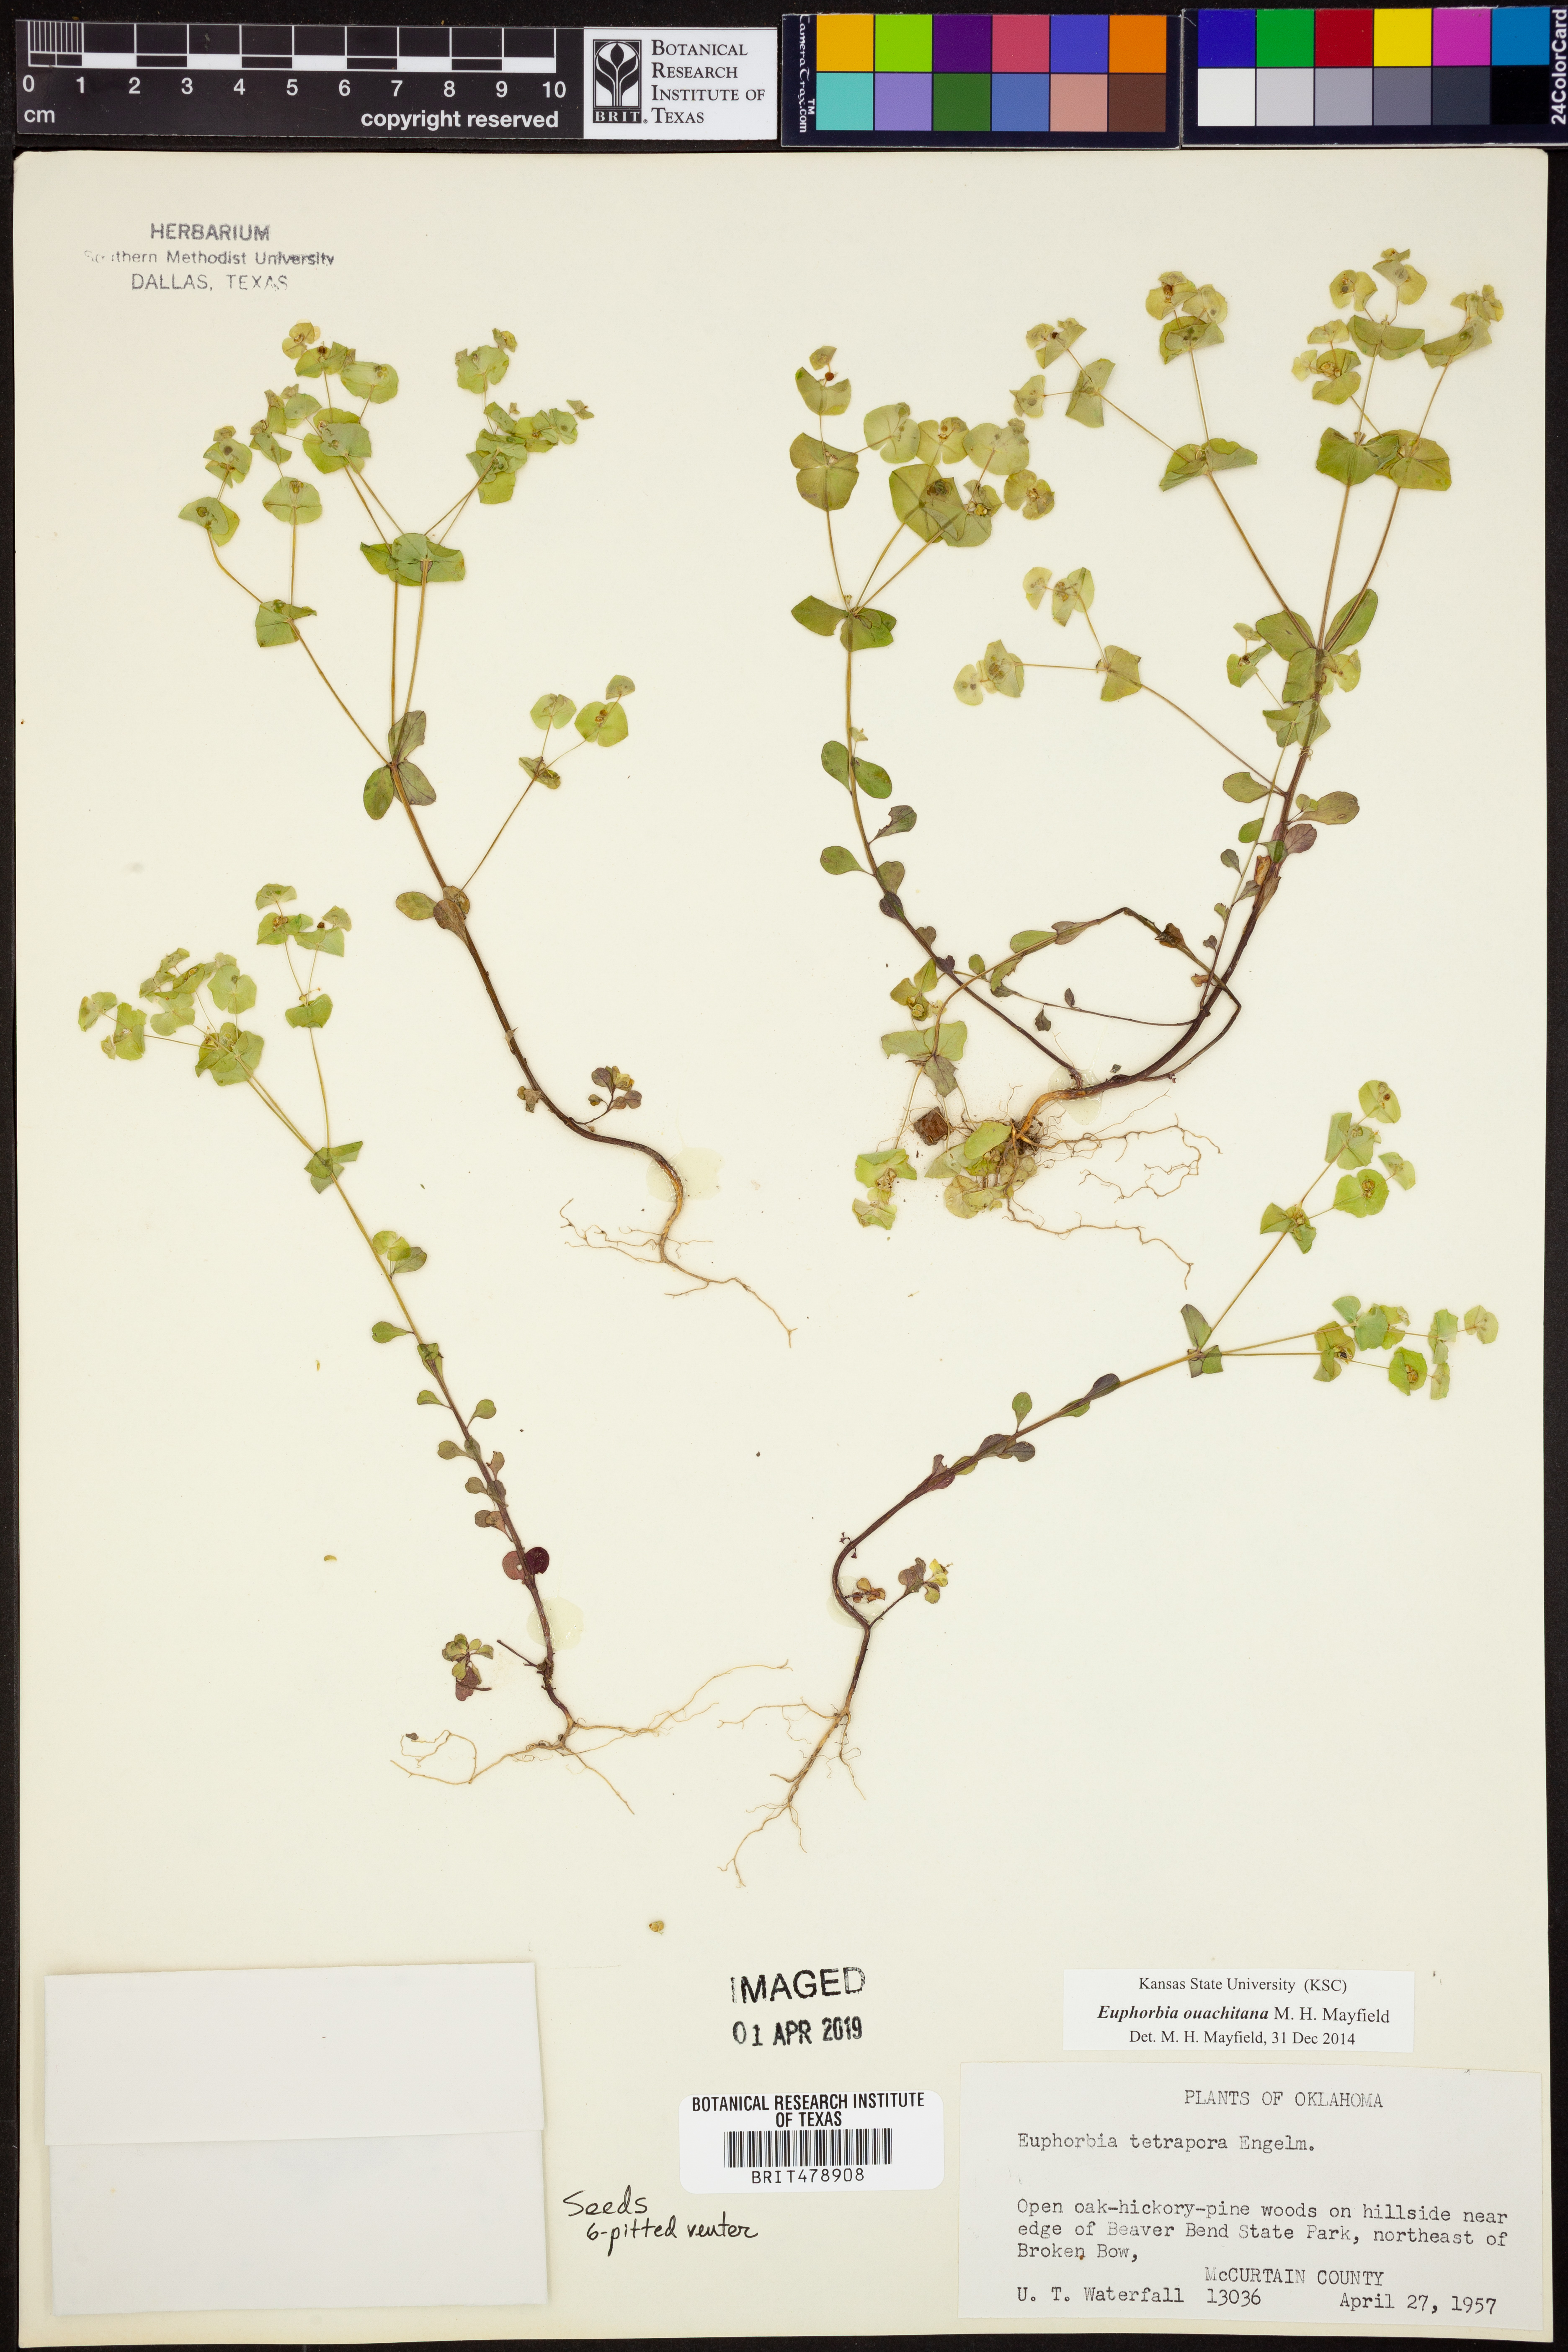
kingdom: Plantae
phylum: Tracheophyta
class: Magnoliopsida
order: Malpighiales
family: Euphorbiaceae
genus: Euphorbia
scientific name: Euphorbia ouachitana
